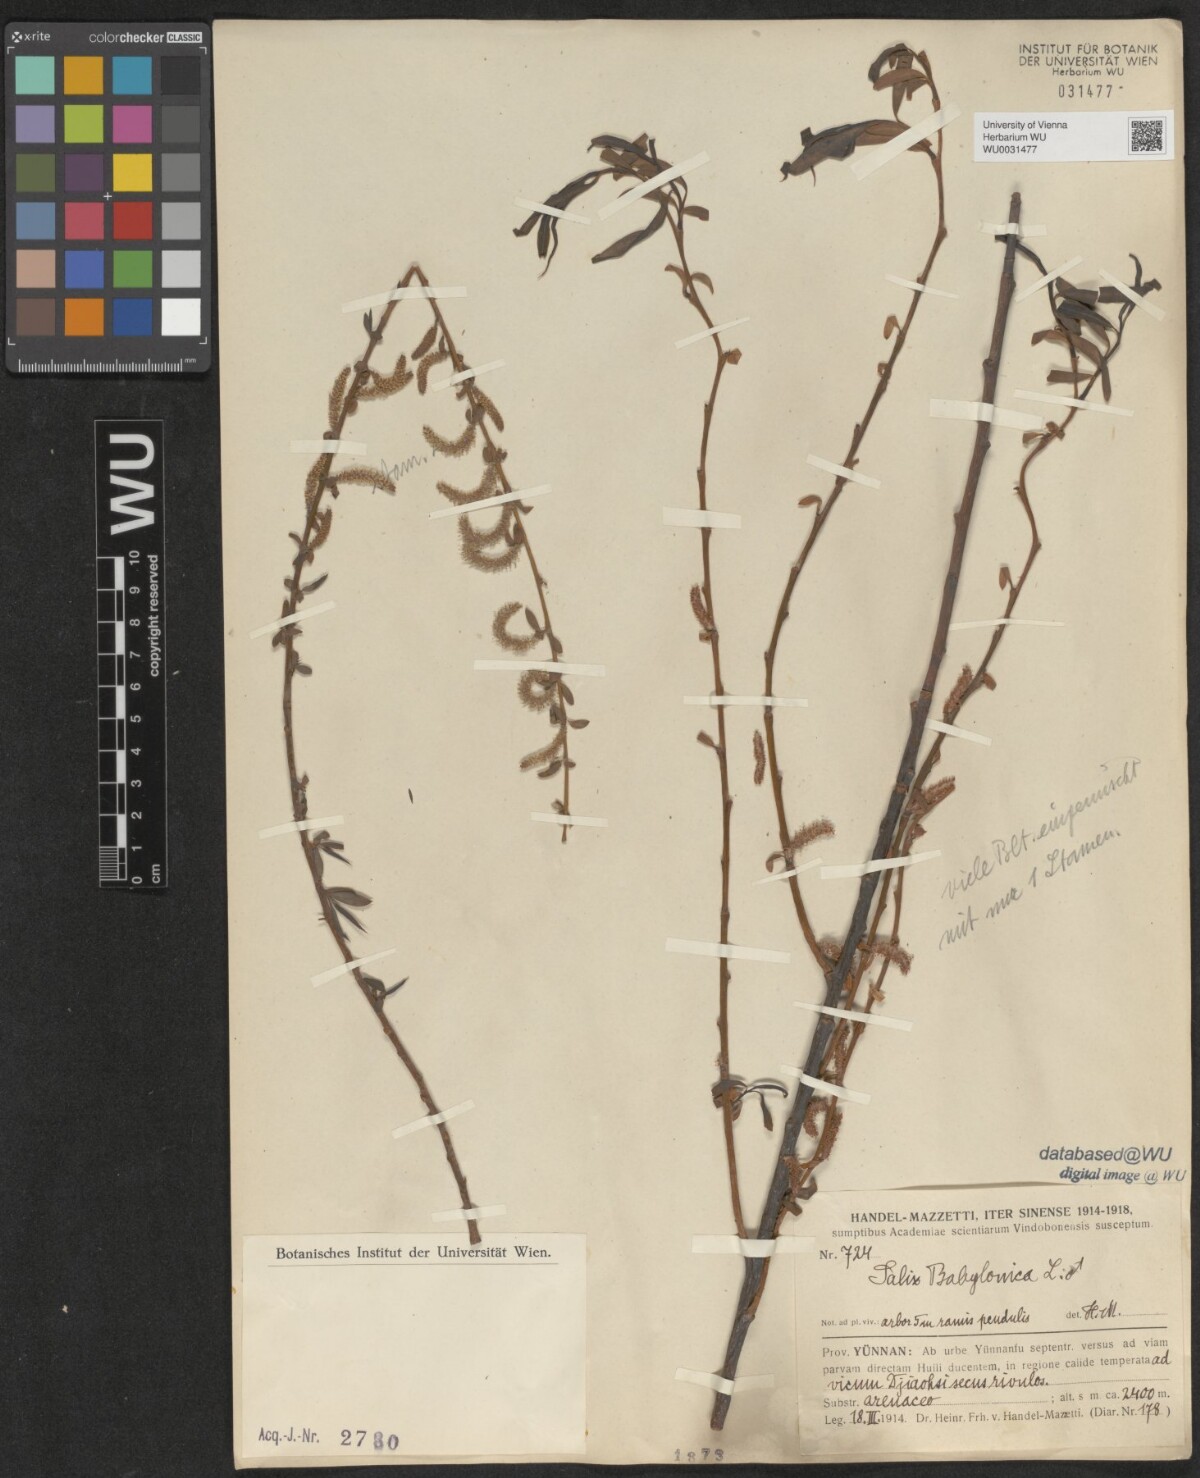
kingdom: Plantae
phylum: Tracheophyta
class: Magnoliopsida
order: Malpighiales
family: Salicaceae
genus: Salix
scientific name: Salix babylonica
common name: Weeping willow
